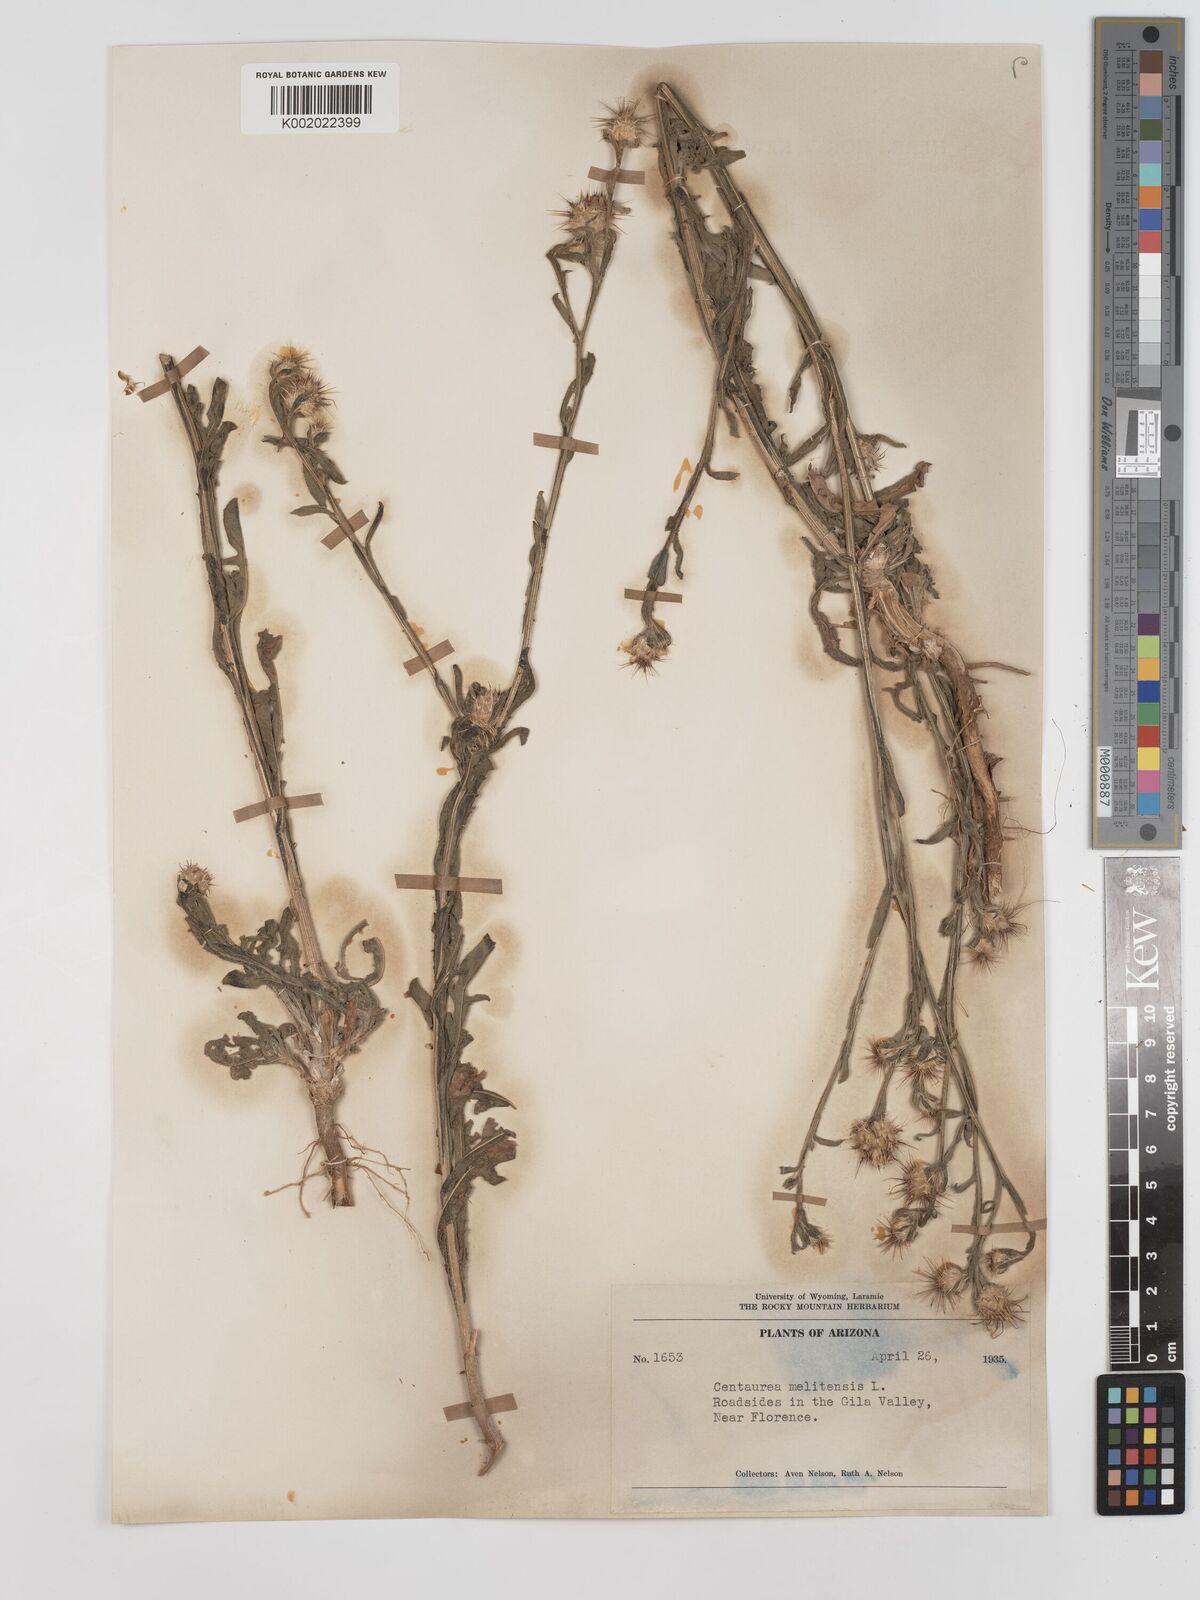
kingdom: Plantae
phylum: Tracheophyta
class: Magnoliopsida
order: Asterales
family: Asteraceae
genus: Centaurea
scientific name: Centaurea melitensis
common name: Maltese star-thistle
